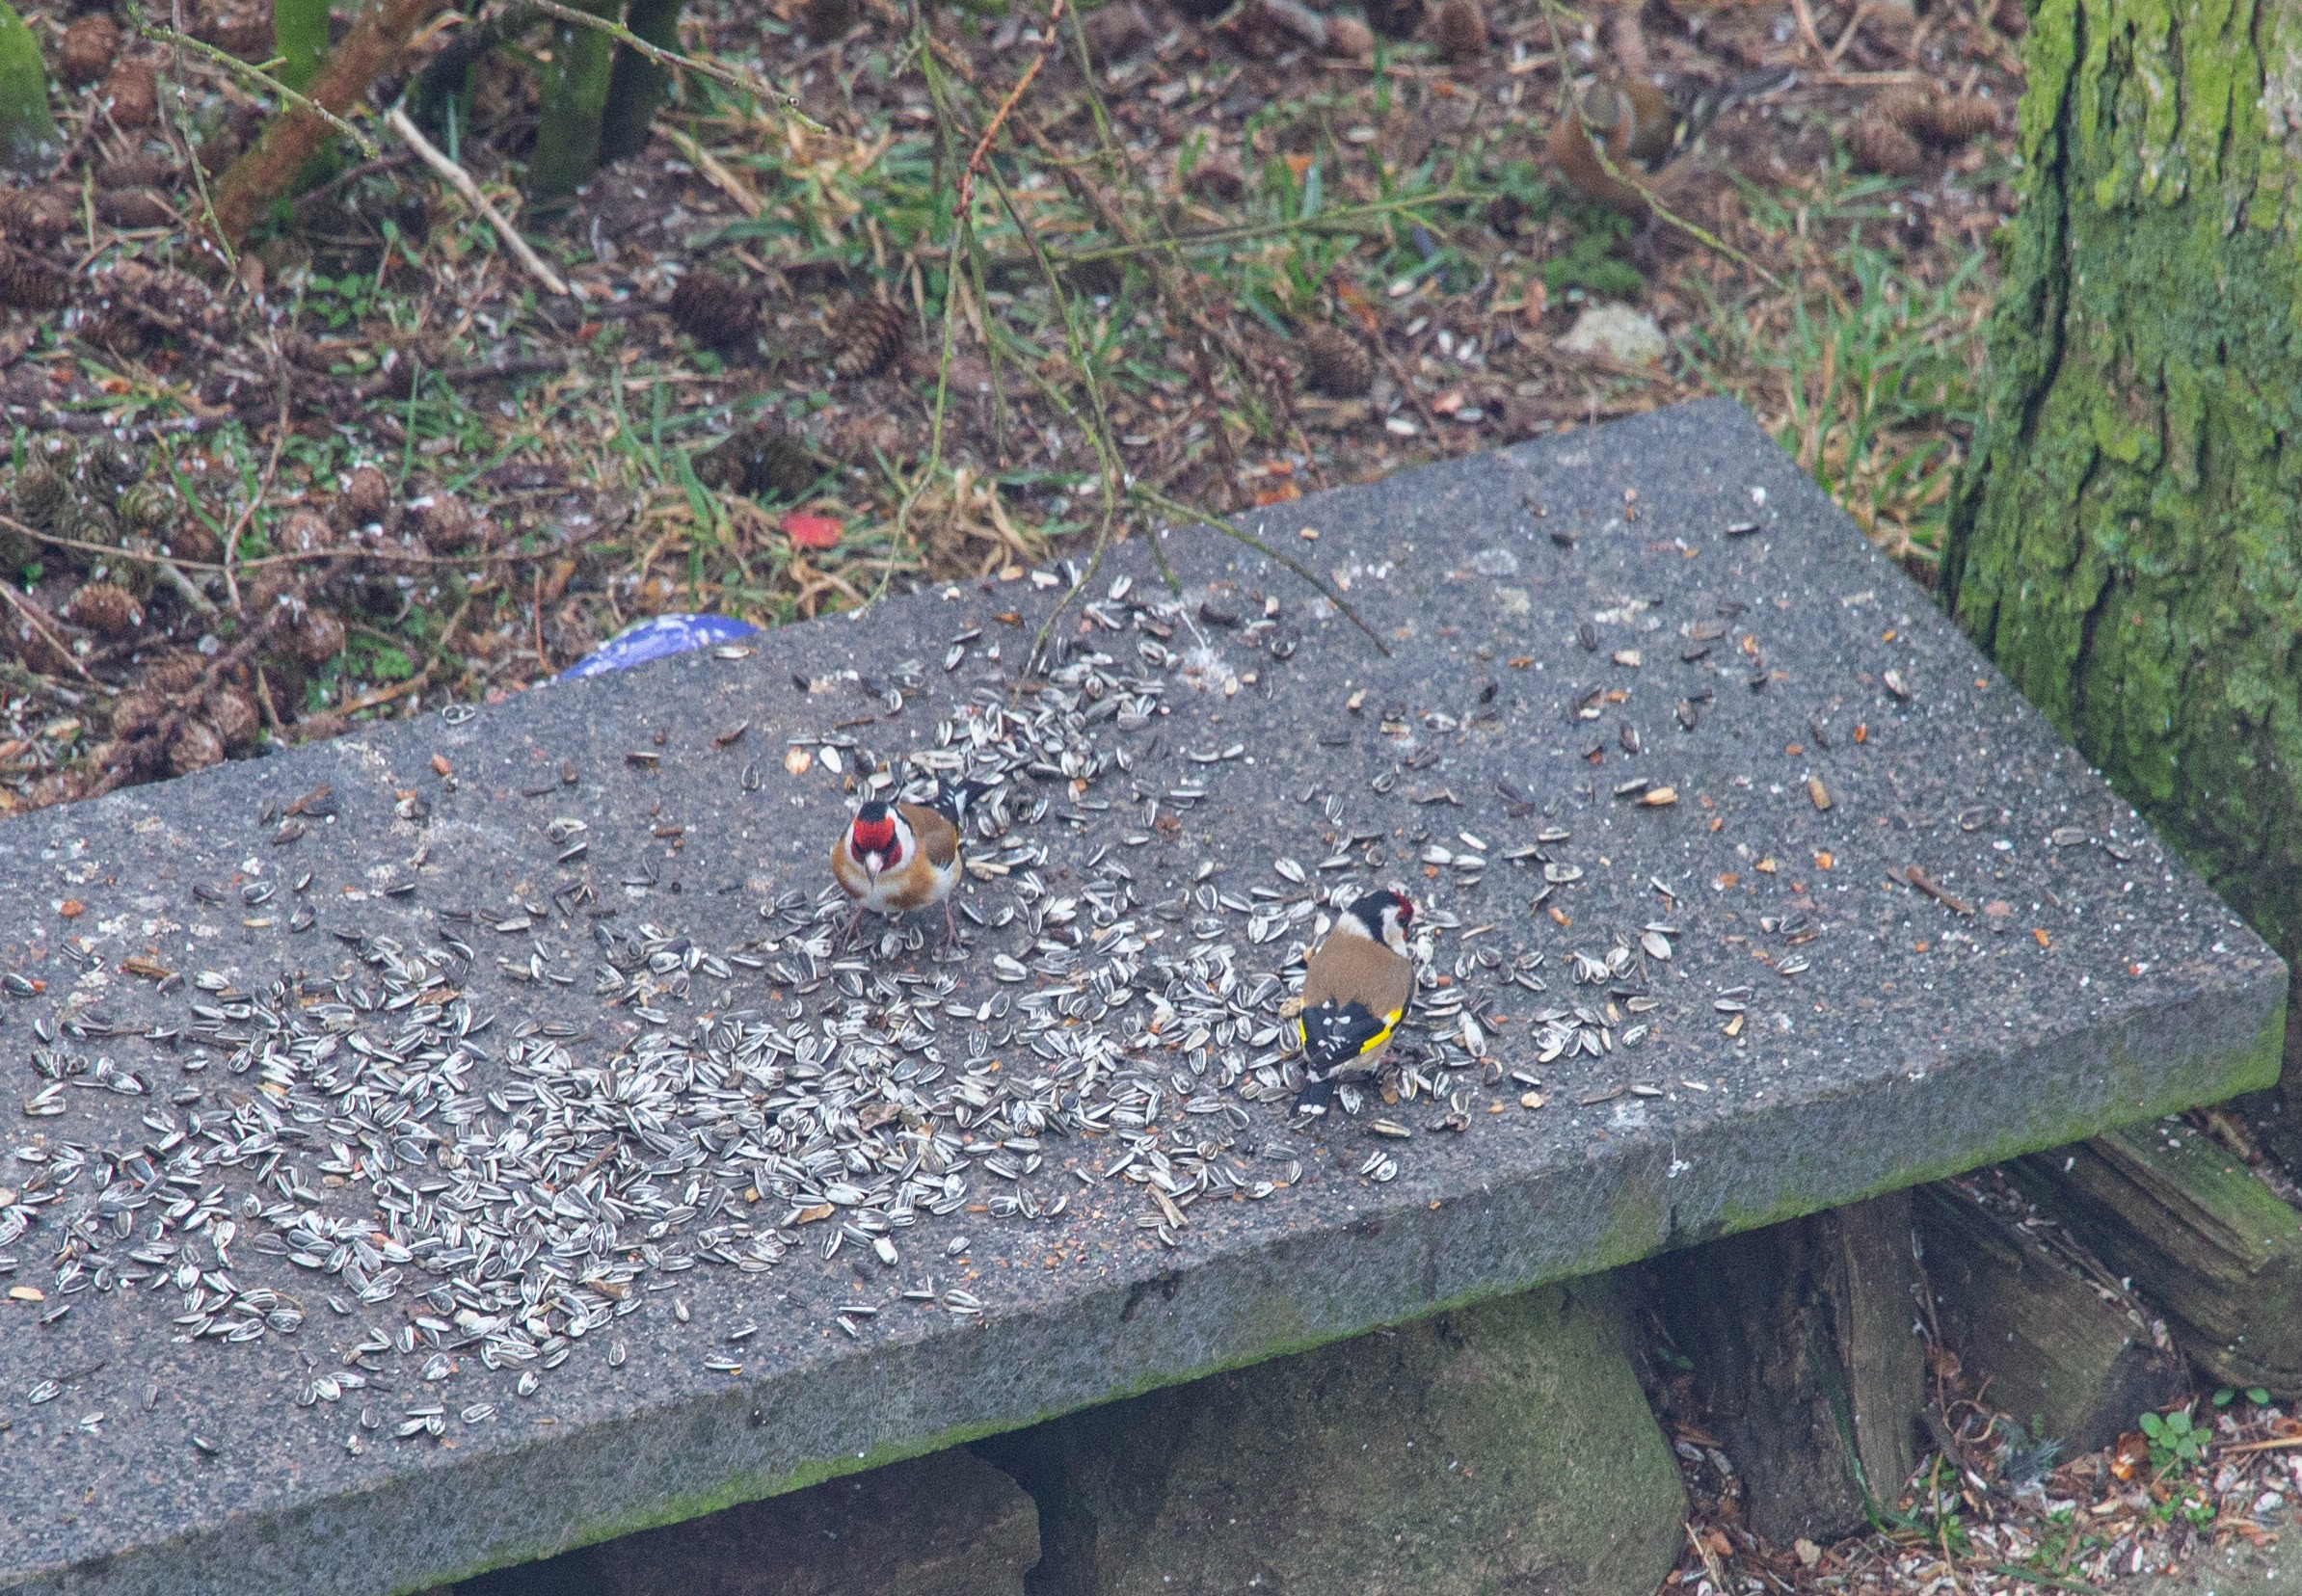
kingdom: Animalia
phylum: Chordata
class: Aves
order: Passeriformes
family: Fringillidae
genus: Carduelis
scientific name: Carduelis carduelis
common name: Stillits
